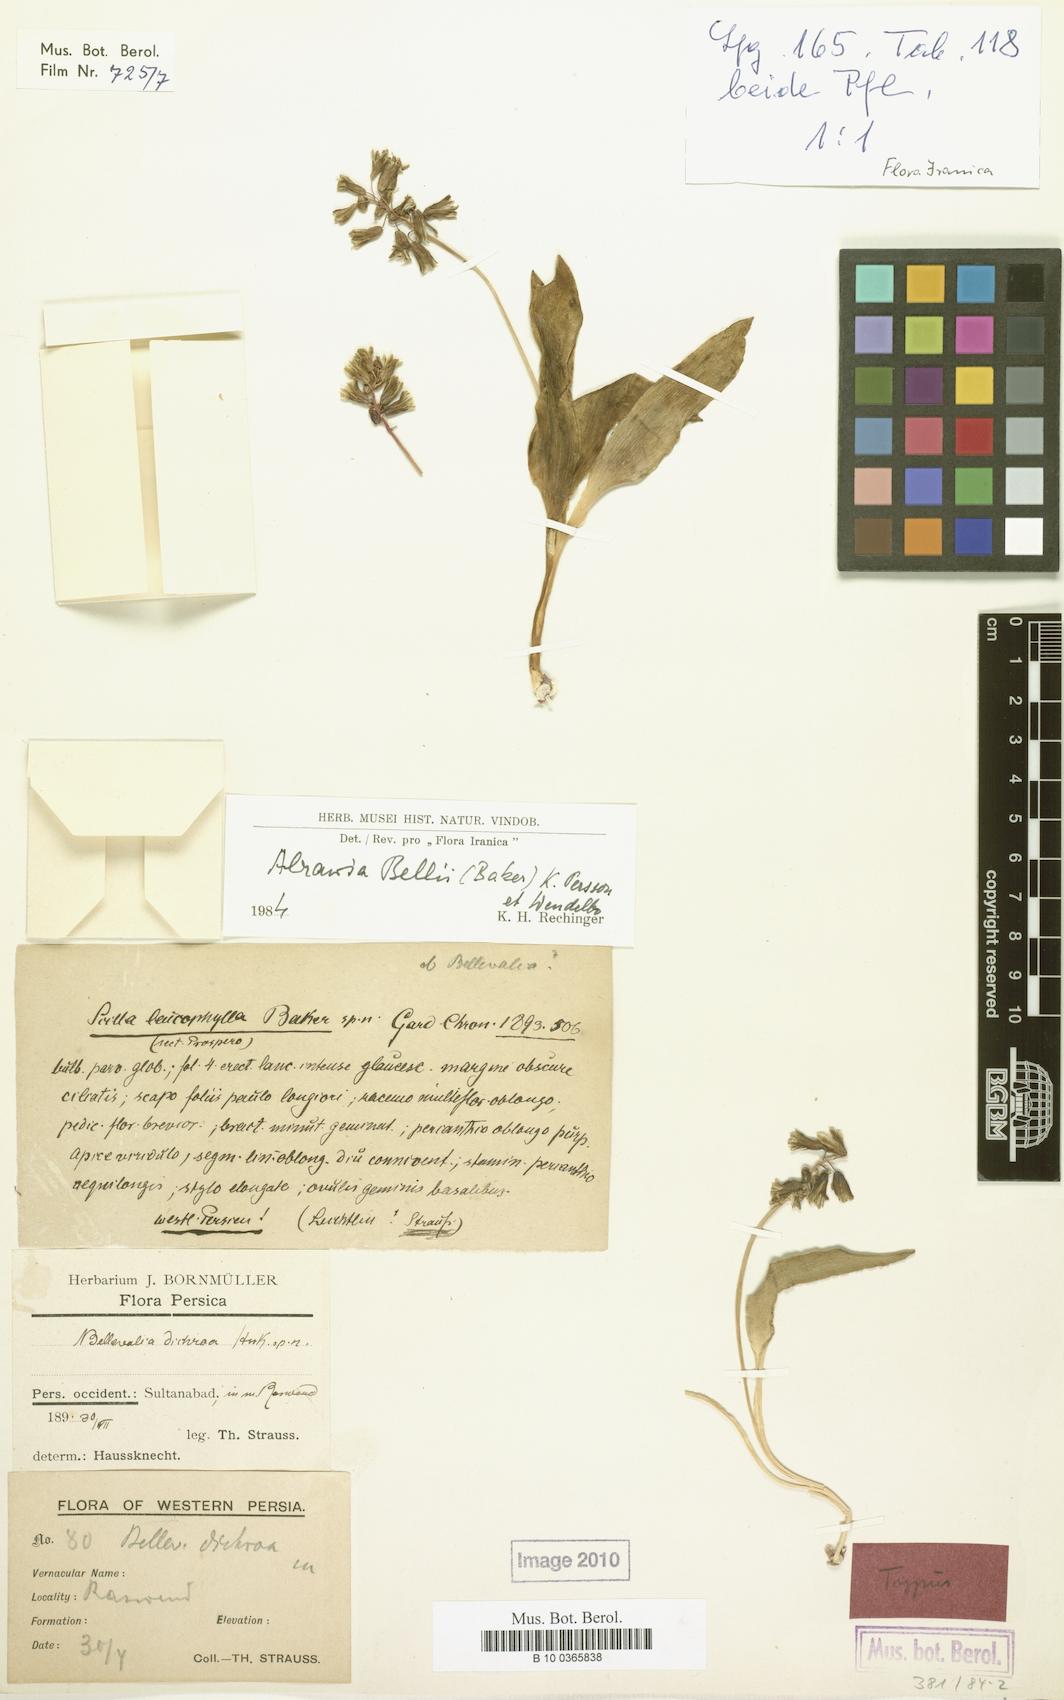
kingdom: Plantae
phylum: Tracheophyta
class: Liliopsida
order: Asparagales
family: Asparagaceae
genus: Alrawia
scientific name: Alrawia bellii
